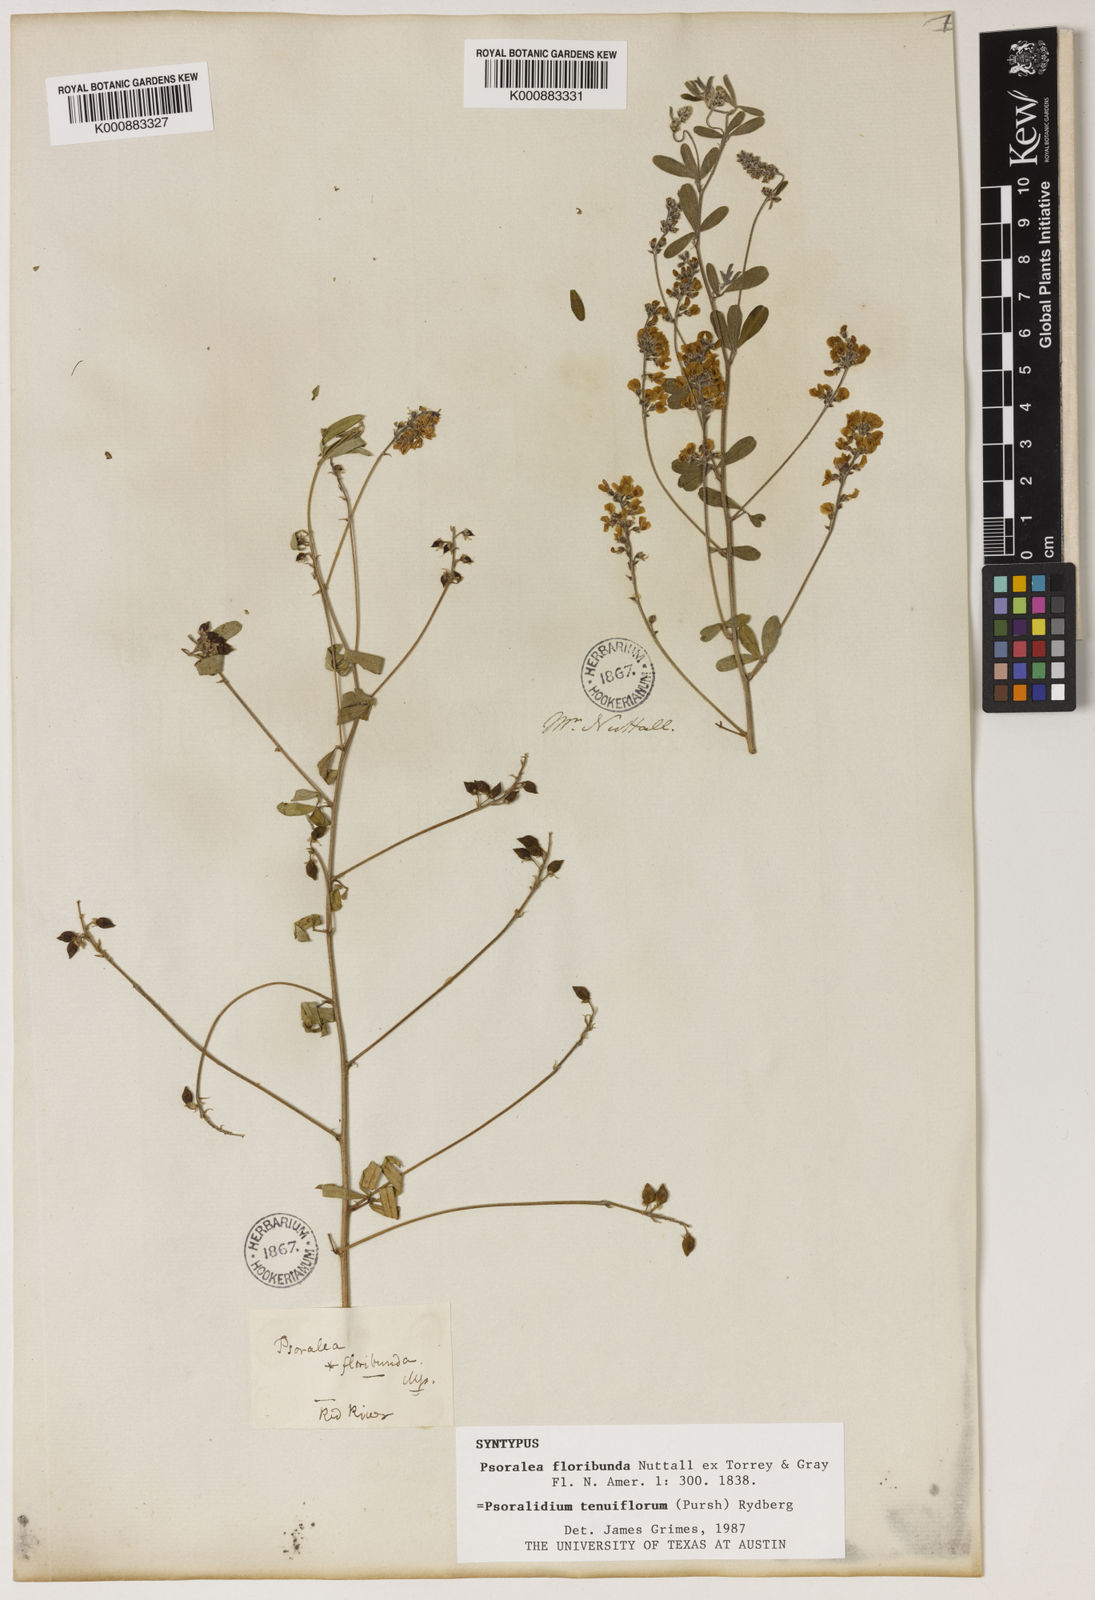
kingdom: Plantae
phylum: Tracheophyta
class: Magnoliopsida
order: Fabales
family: Fabaceae
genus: Pediomelum
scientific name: Pediomelum tenuiflorum
